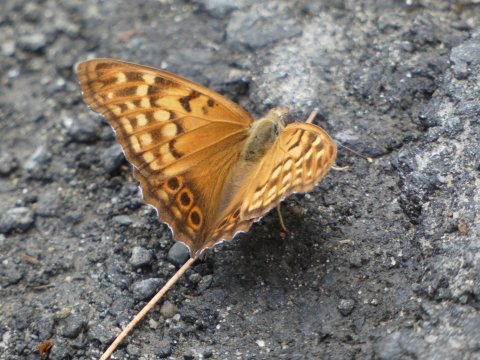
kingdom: Animalia
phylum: Arthropoda
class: Insecta
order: Lepidoptera
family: Nymphalidae
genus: Asterocampa
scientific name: Asterocampa clyton
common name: Tawny Emperor
